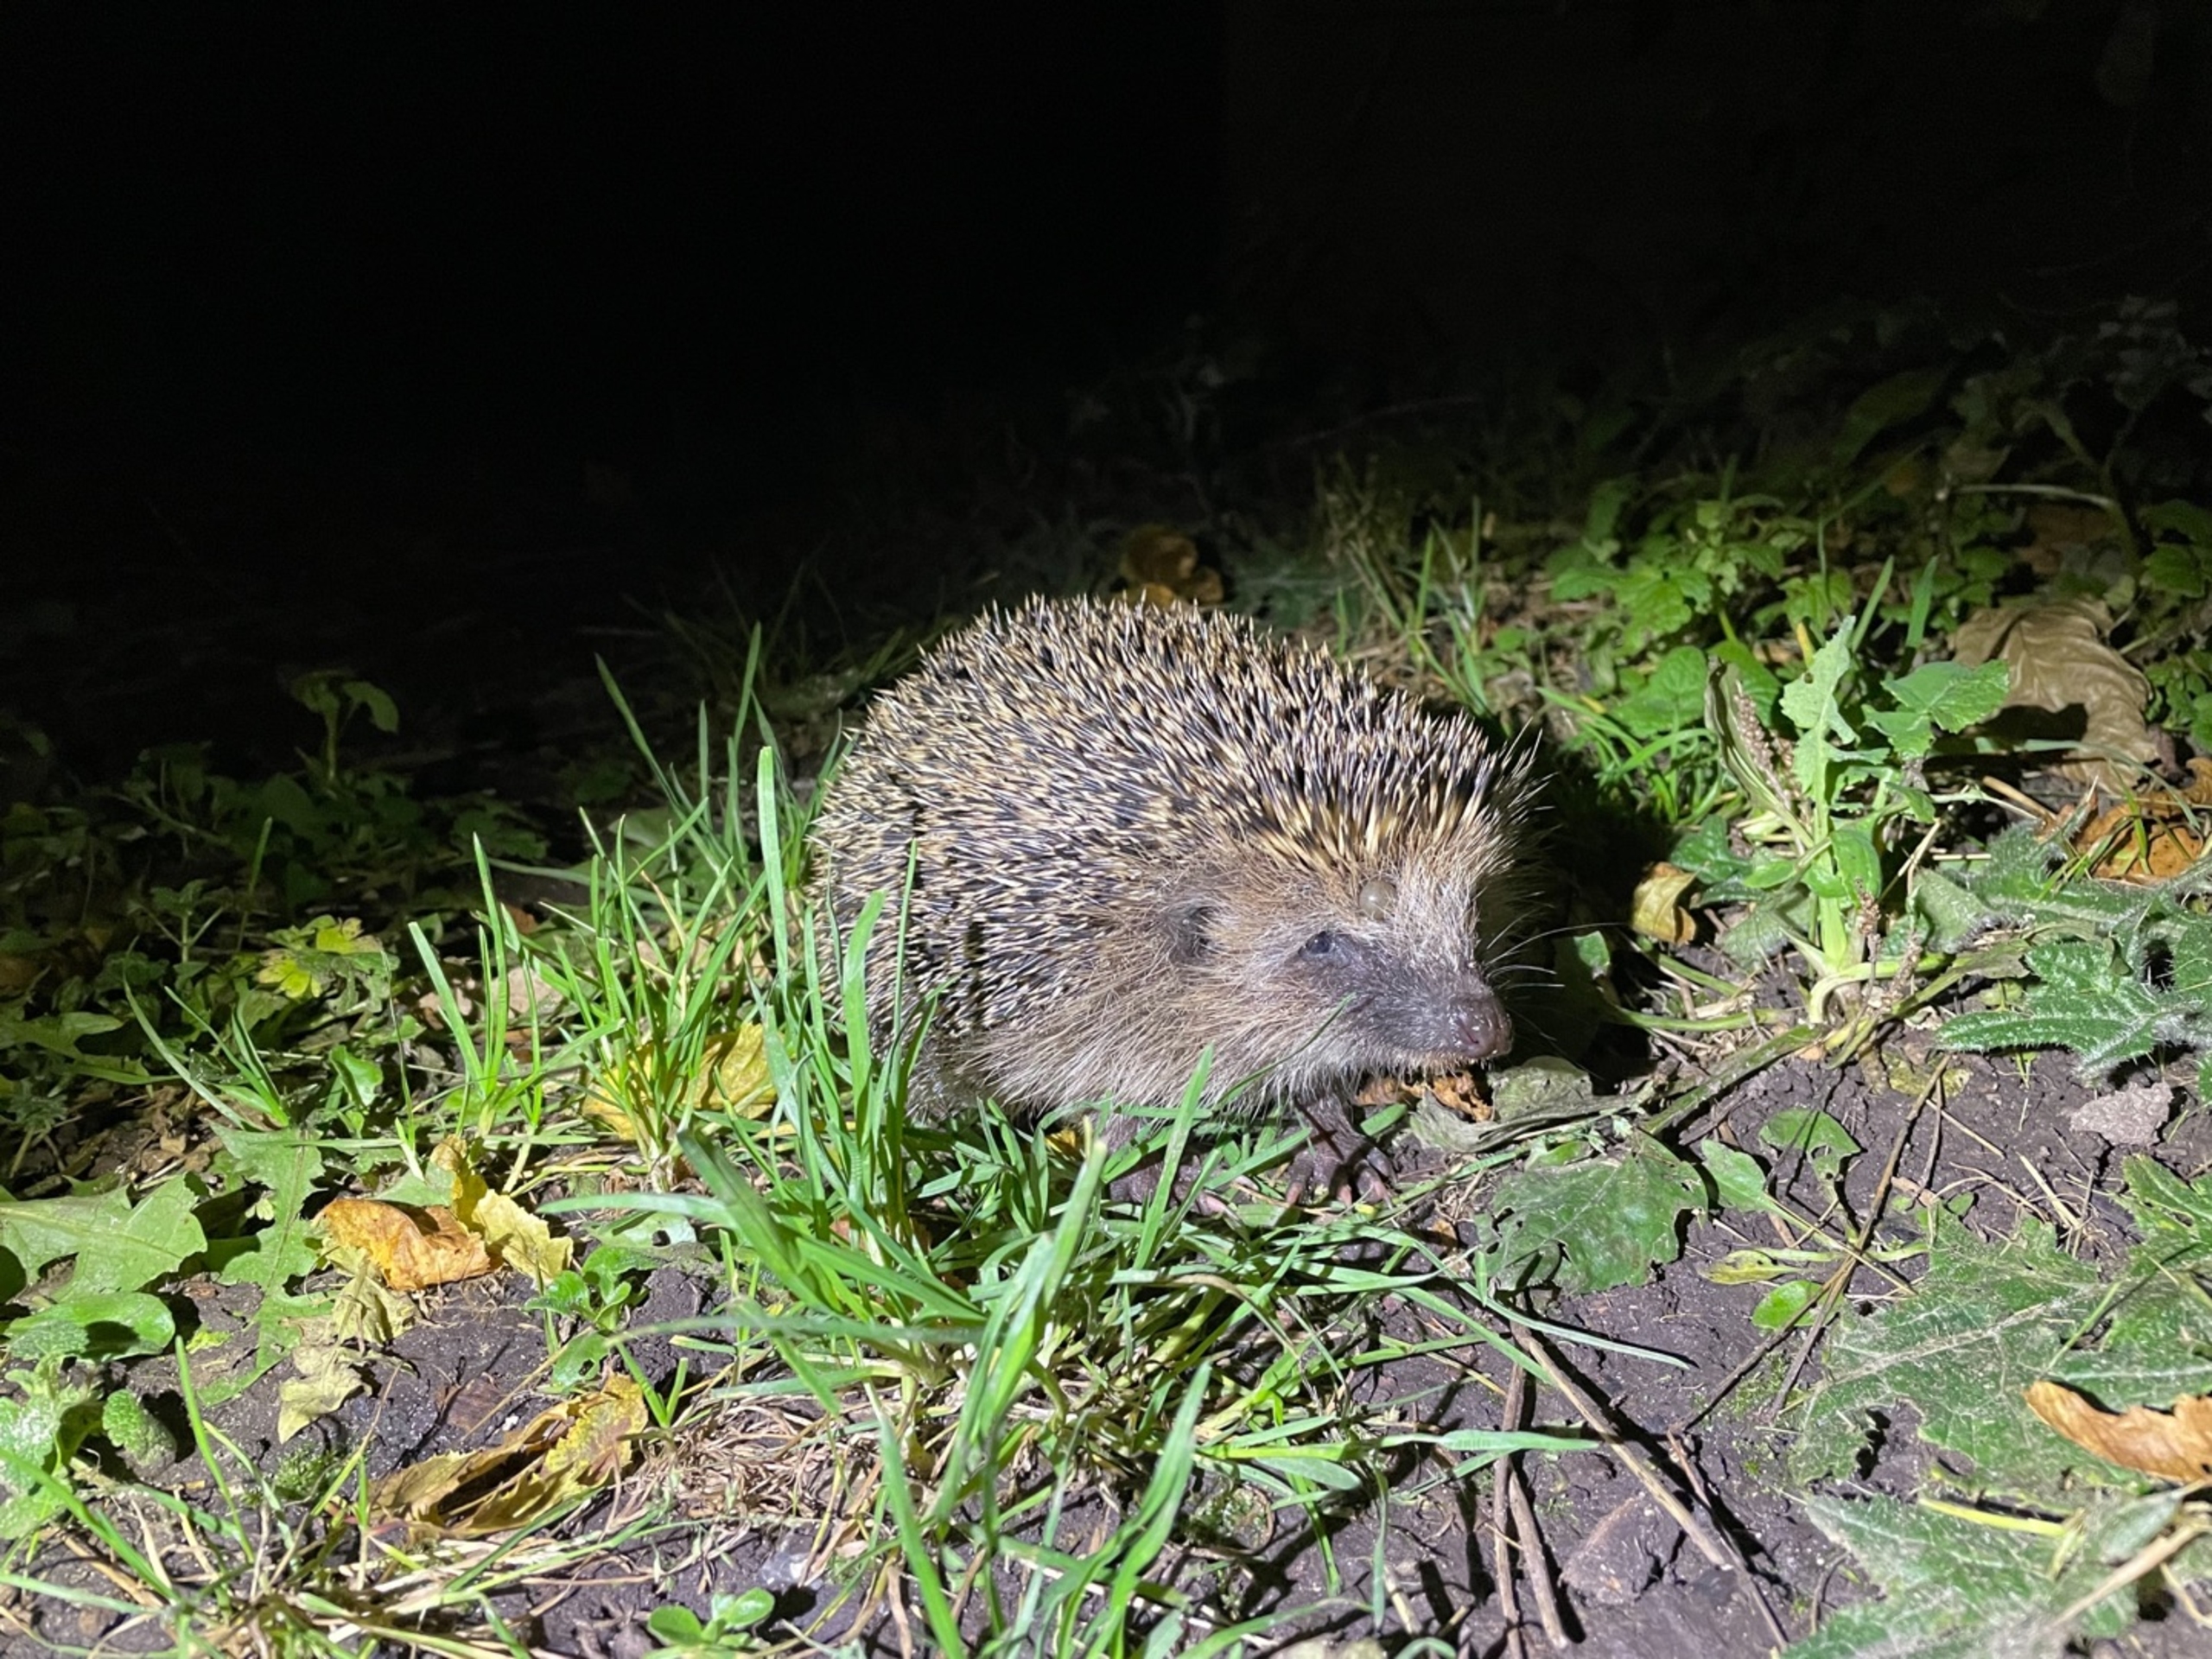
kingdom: Animalia
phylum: Chordata
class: Mammalia
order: Erinaceomorpha
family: Erinaceidae
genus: Erinaceus
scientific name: Erinaceus europaeus
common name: Pindsvin
